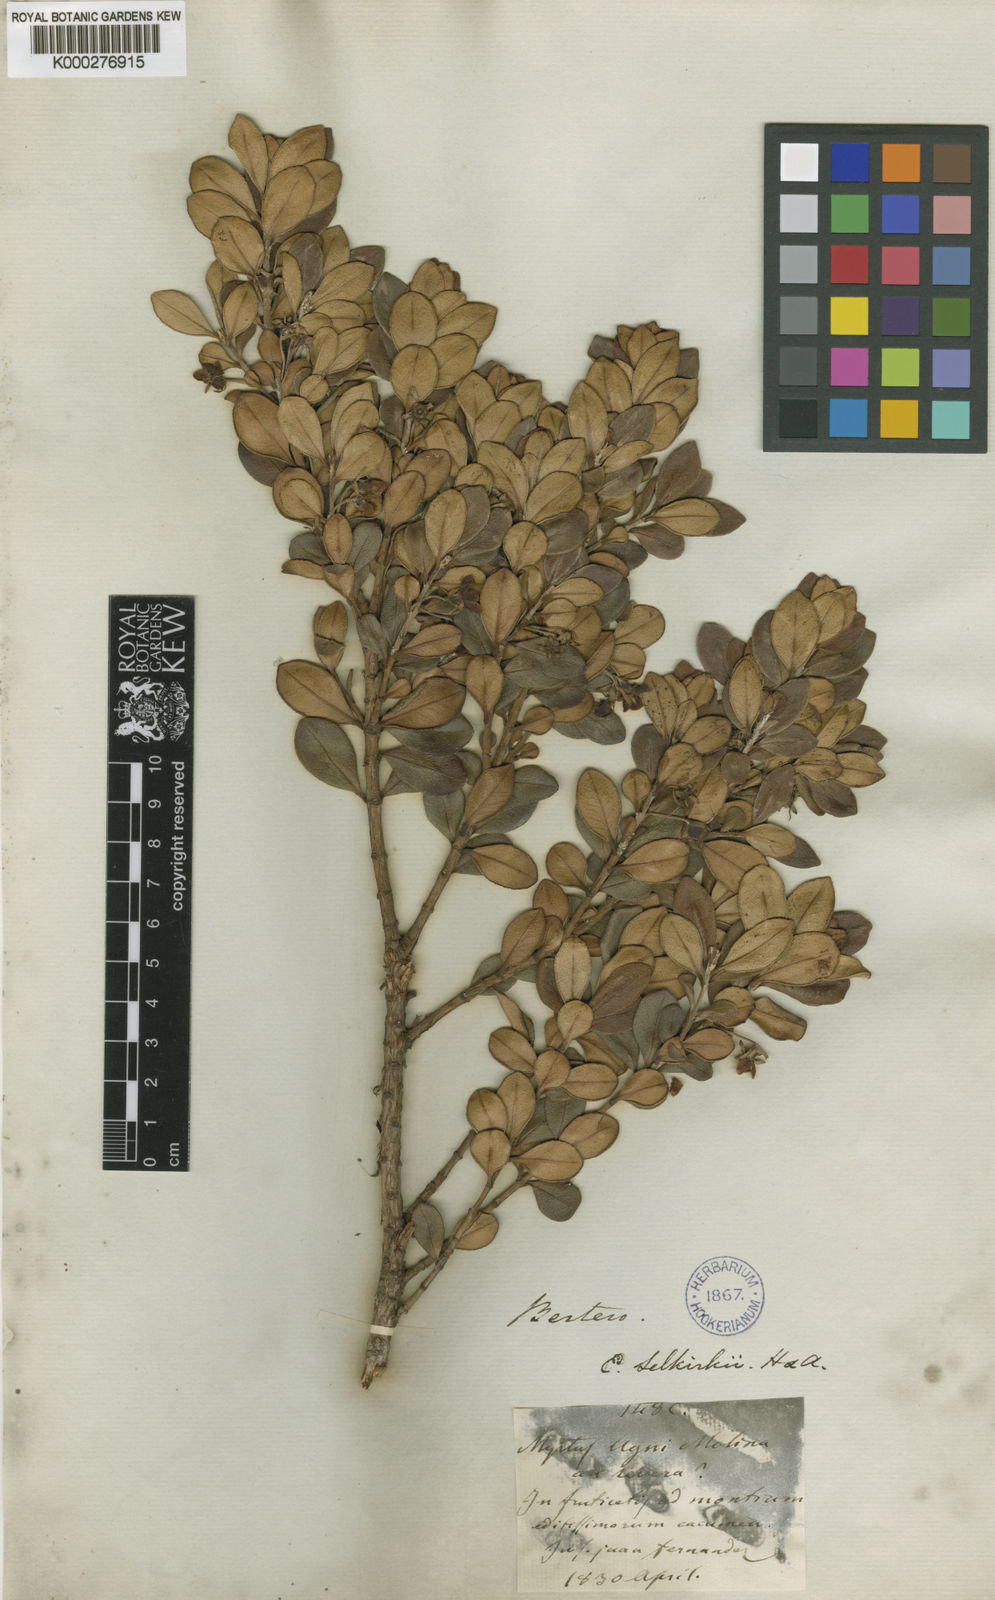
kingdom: Plantae
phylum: Tracheophyta
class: Magnoliopsida
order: Myrtales
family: Myrtaceae
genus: Ugni
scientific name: Ugni selkirkii
